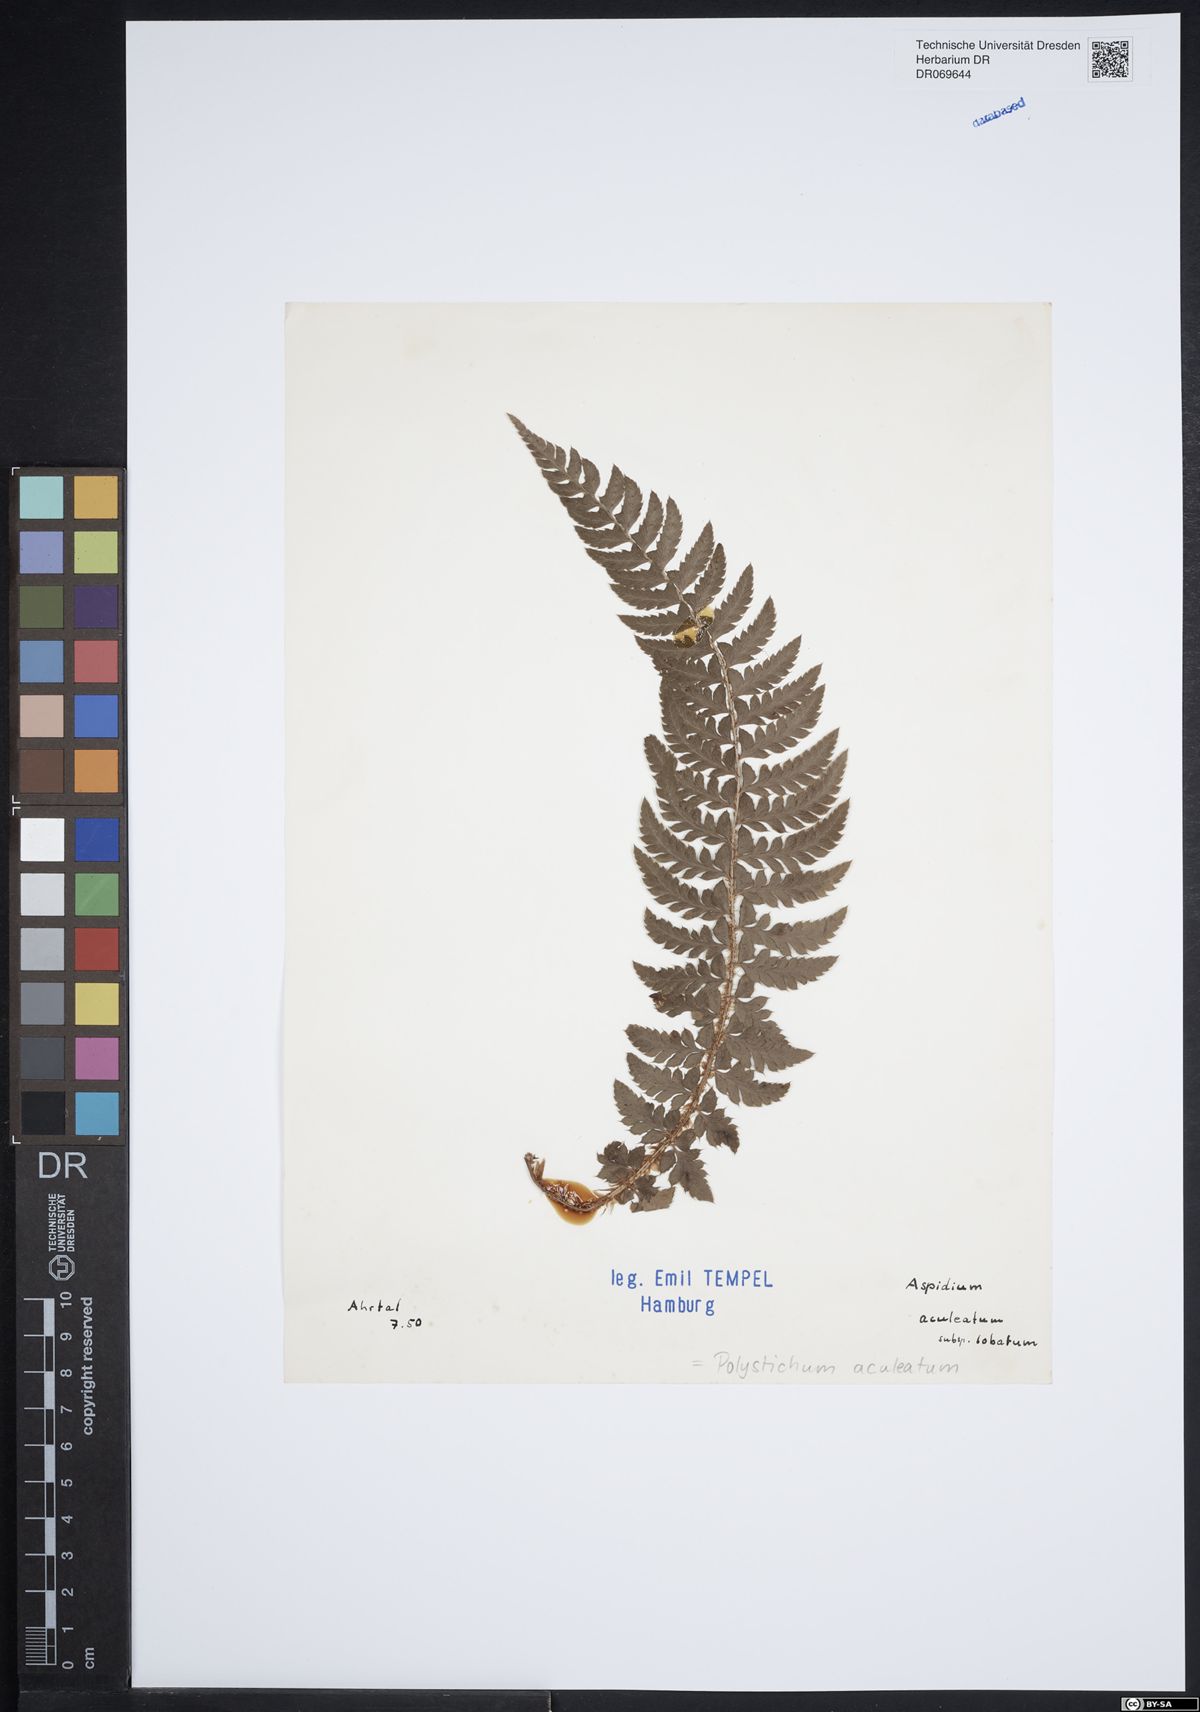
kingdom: Plantae
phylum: Tracheophyta
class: Polypodiopsida
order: Polypodiales
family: Dryopteridaceae
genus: Polystichum
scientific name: Polystichum aculeatum
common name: Hard shield-fern
